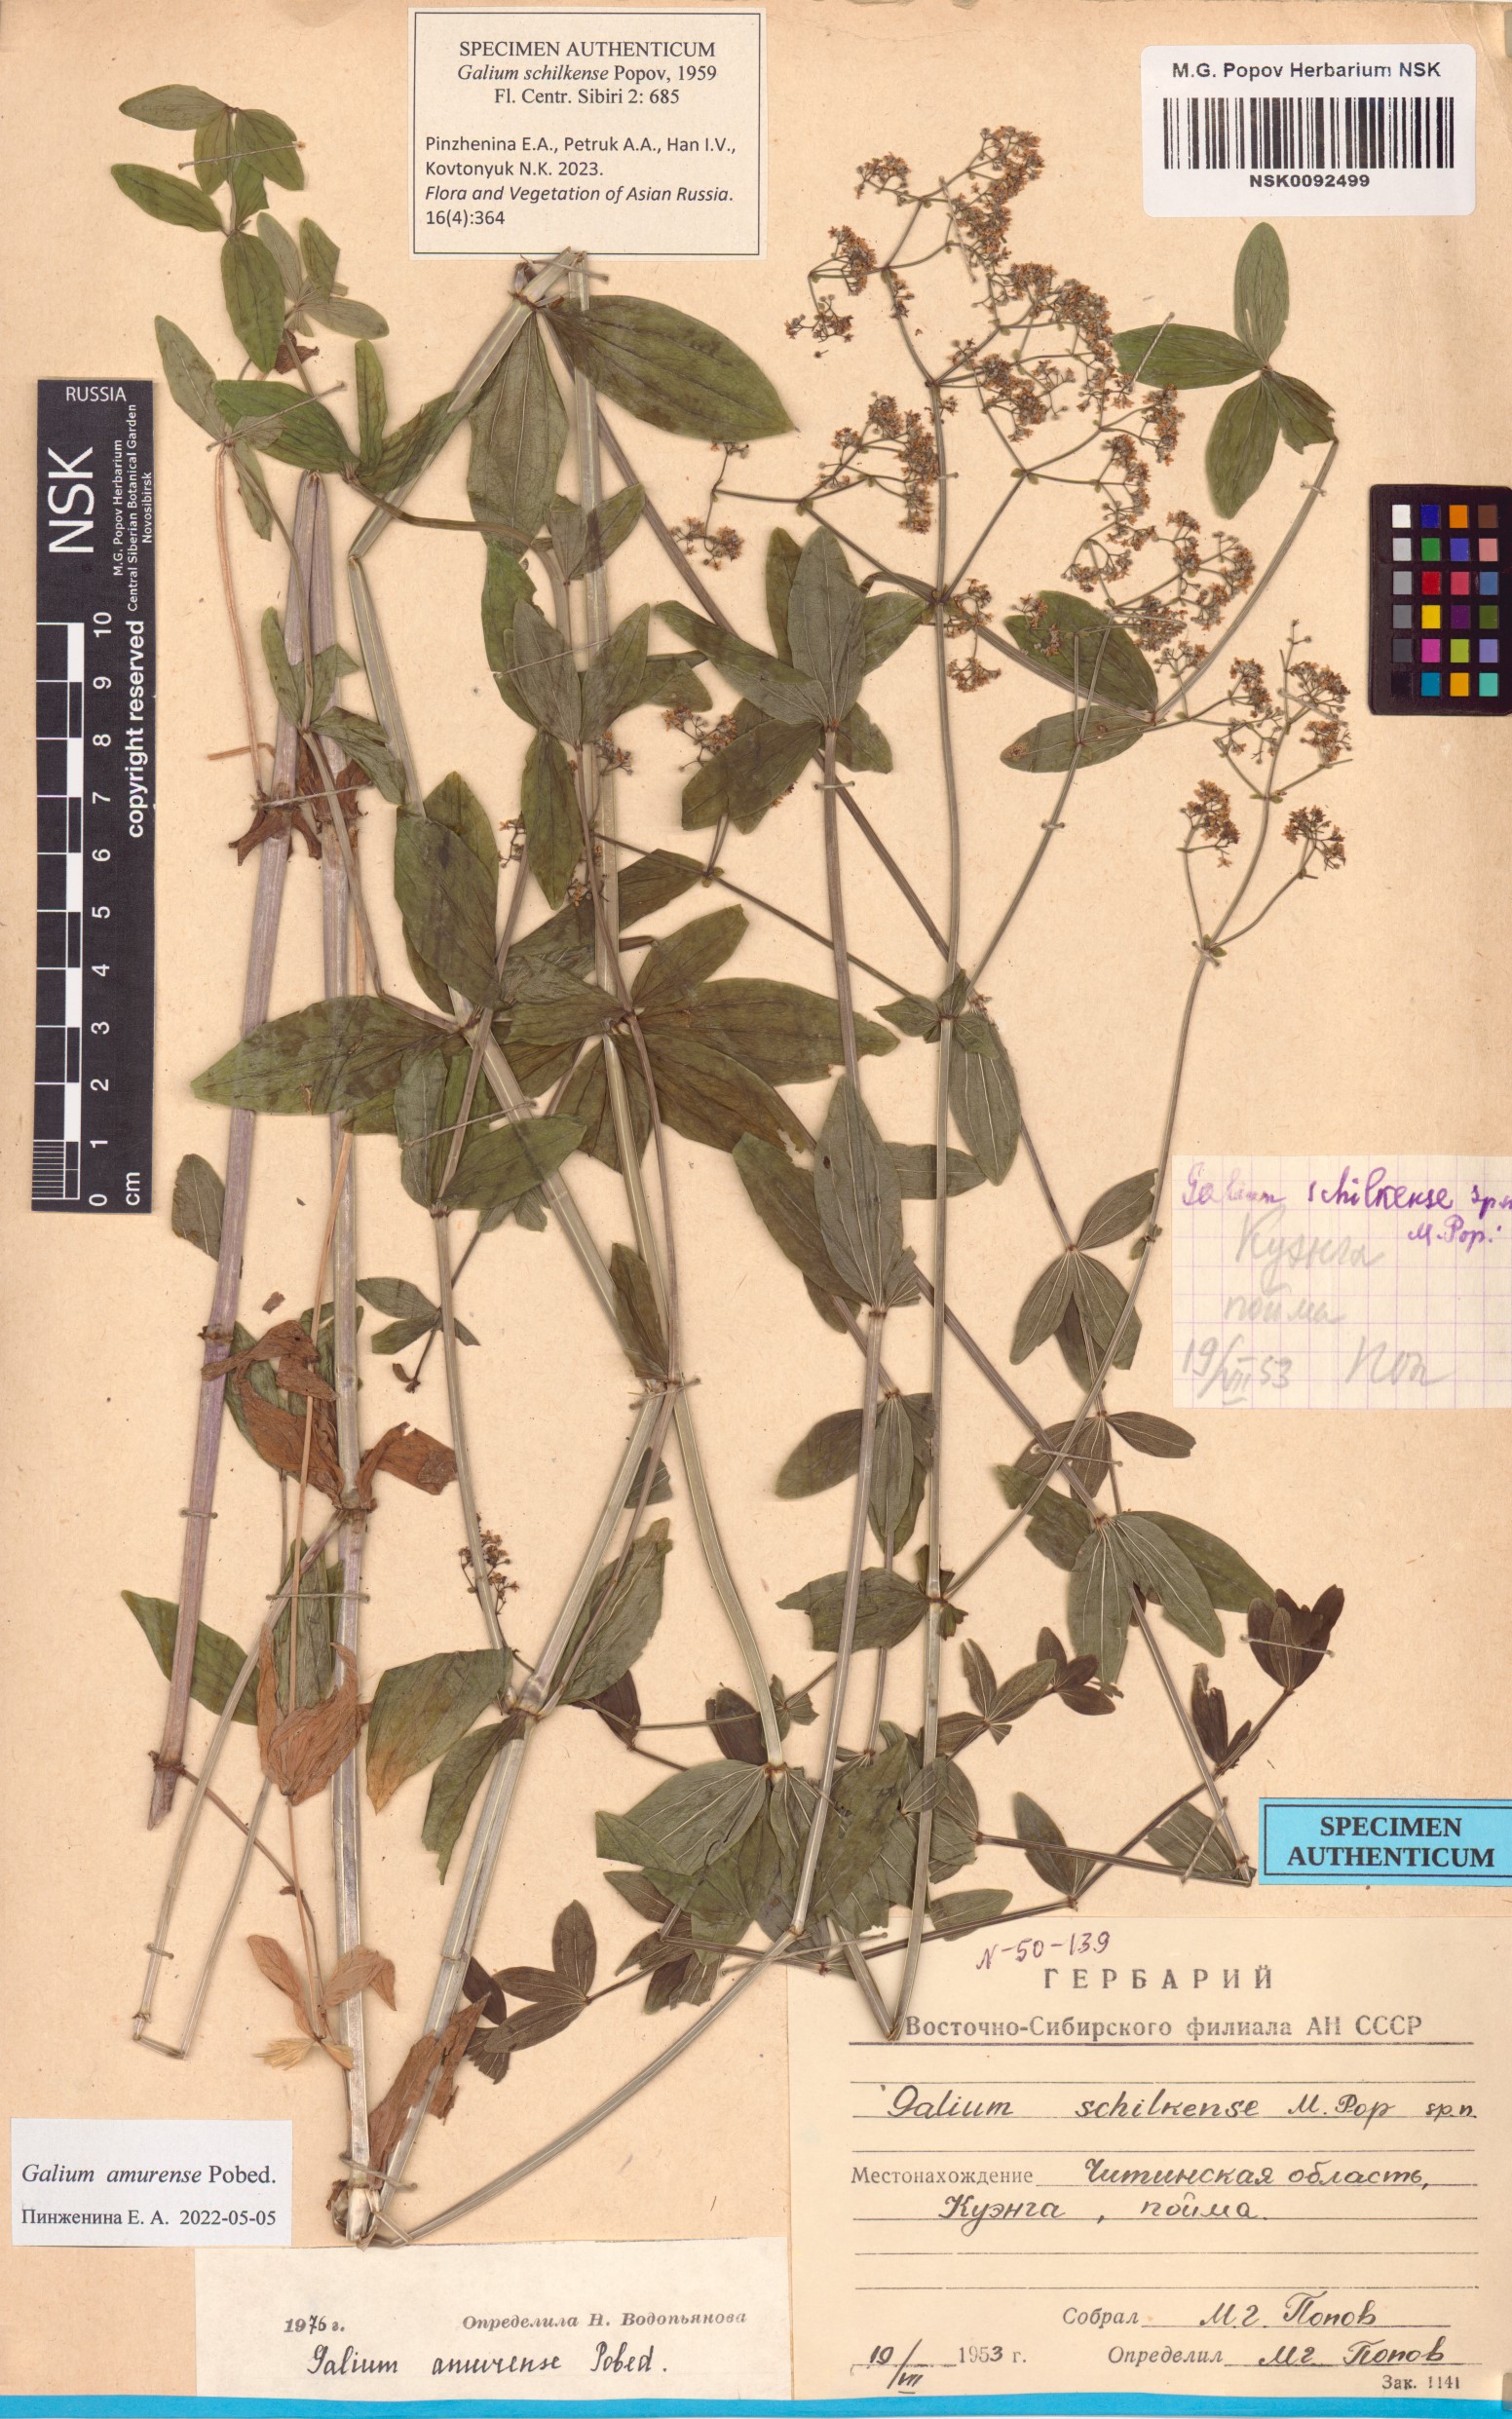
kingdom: Plantae
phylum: Tracheophyta
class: Magnoliopsida
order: Gentianales
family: Rubiaceae
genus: Galium
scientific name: Galium amurense
